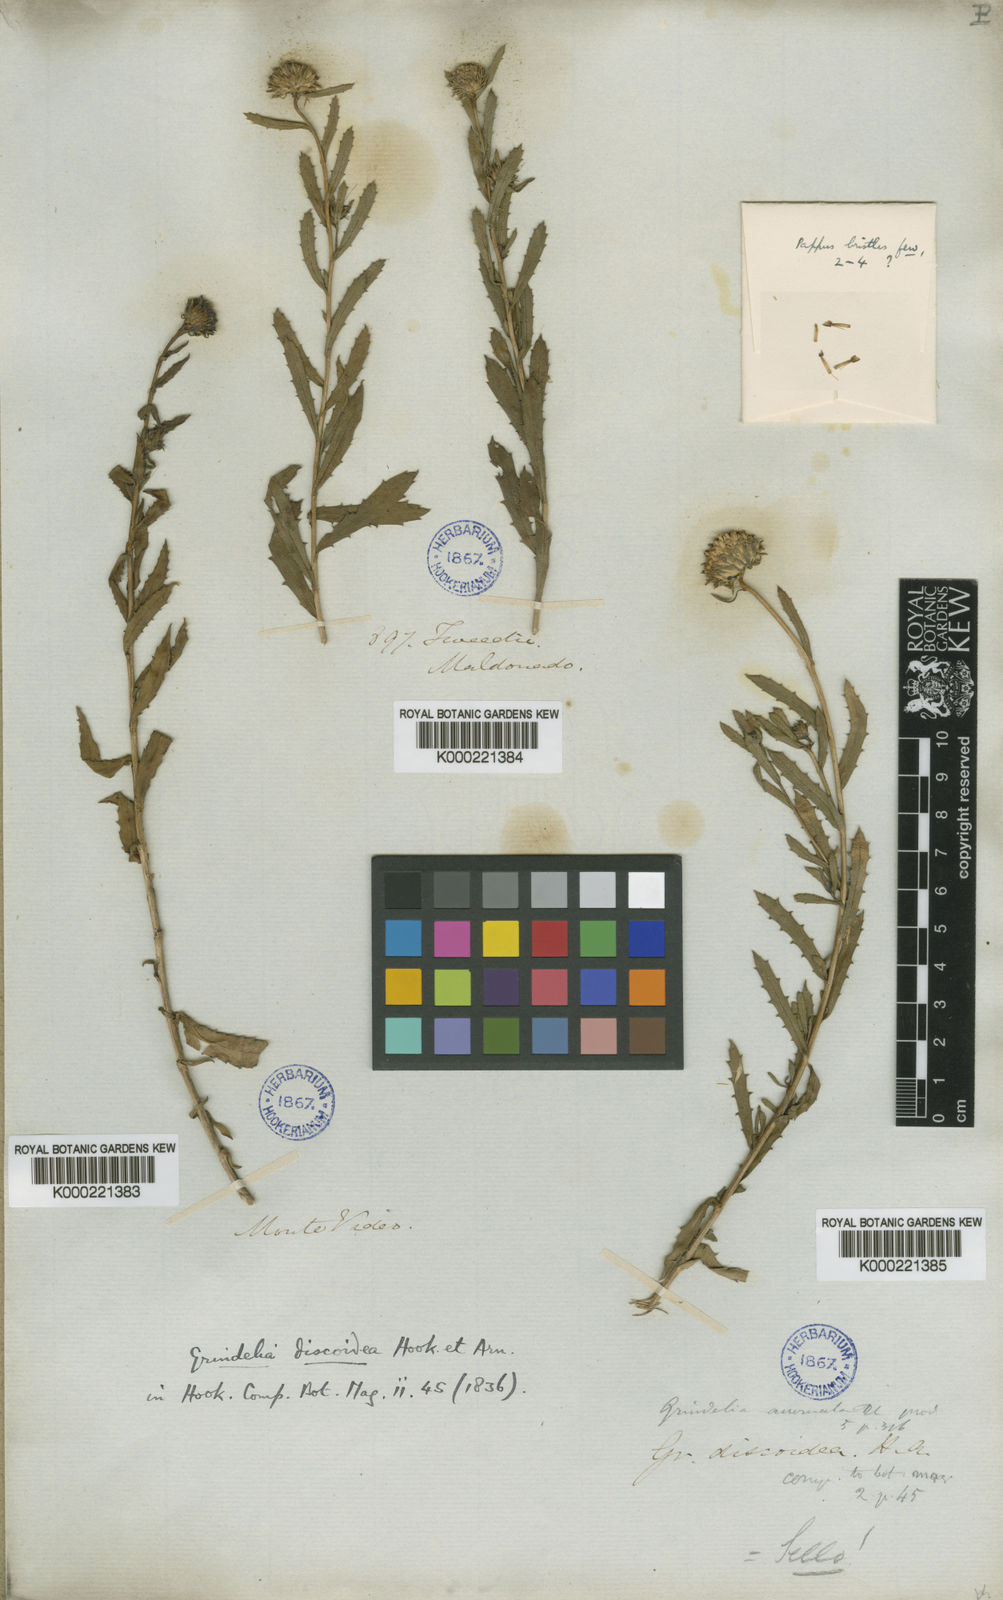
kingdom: Plantae
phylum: Tracheophyta
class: Magnoliopsida
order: Asterales
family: Asteraceae
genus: Grindelia
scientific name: Grindelia pulchella
